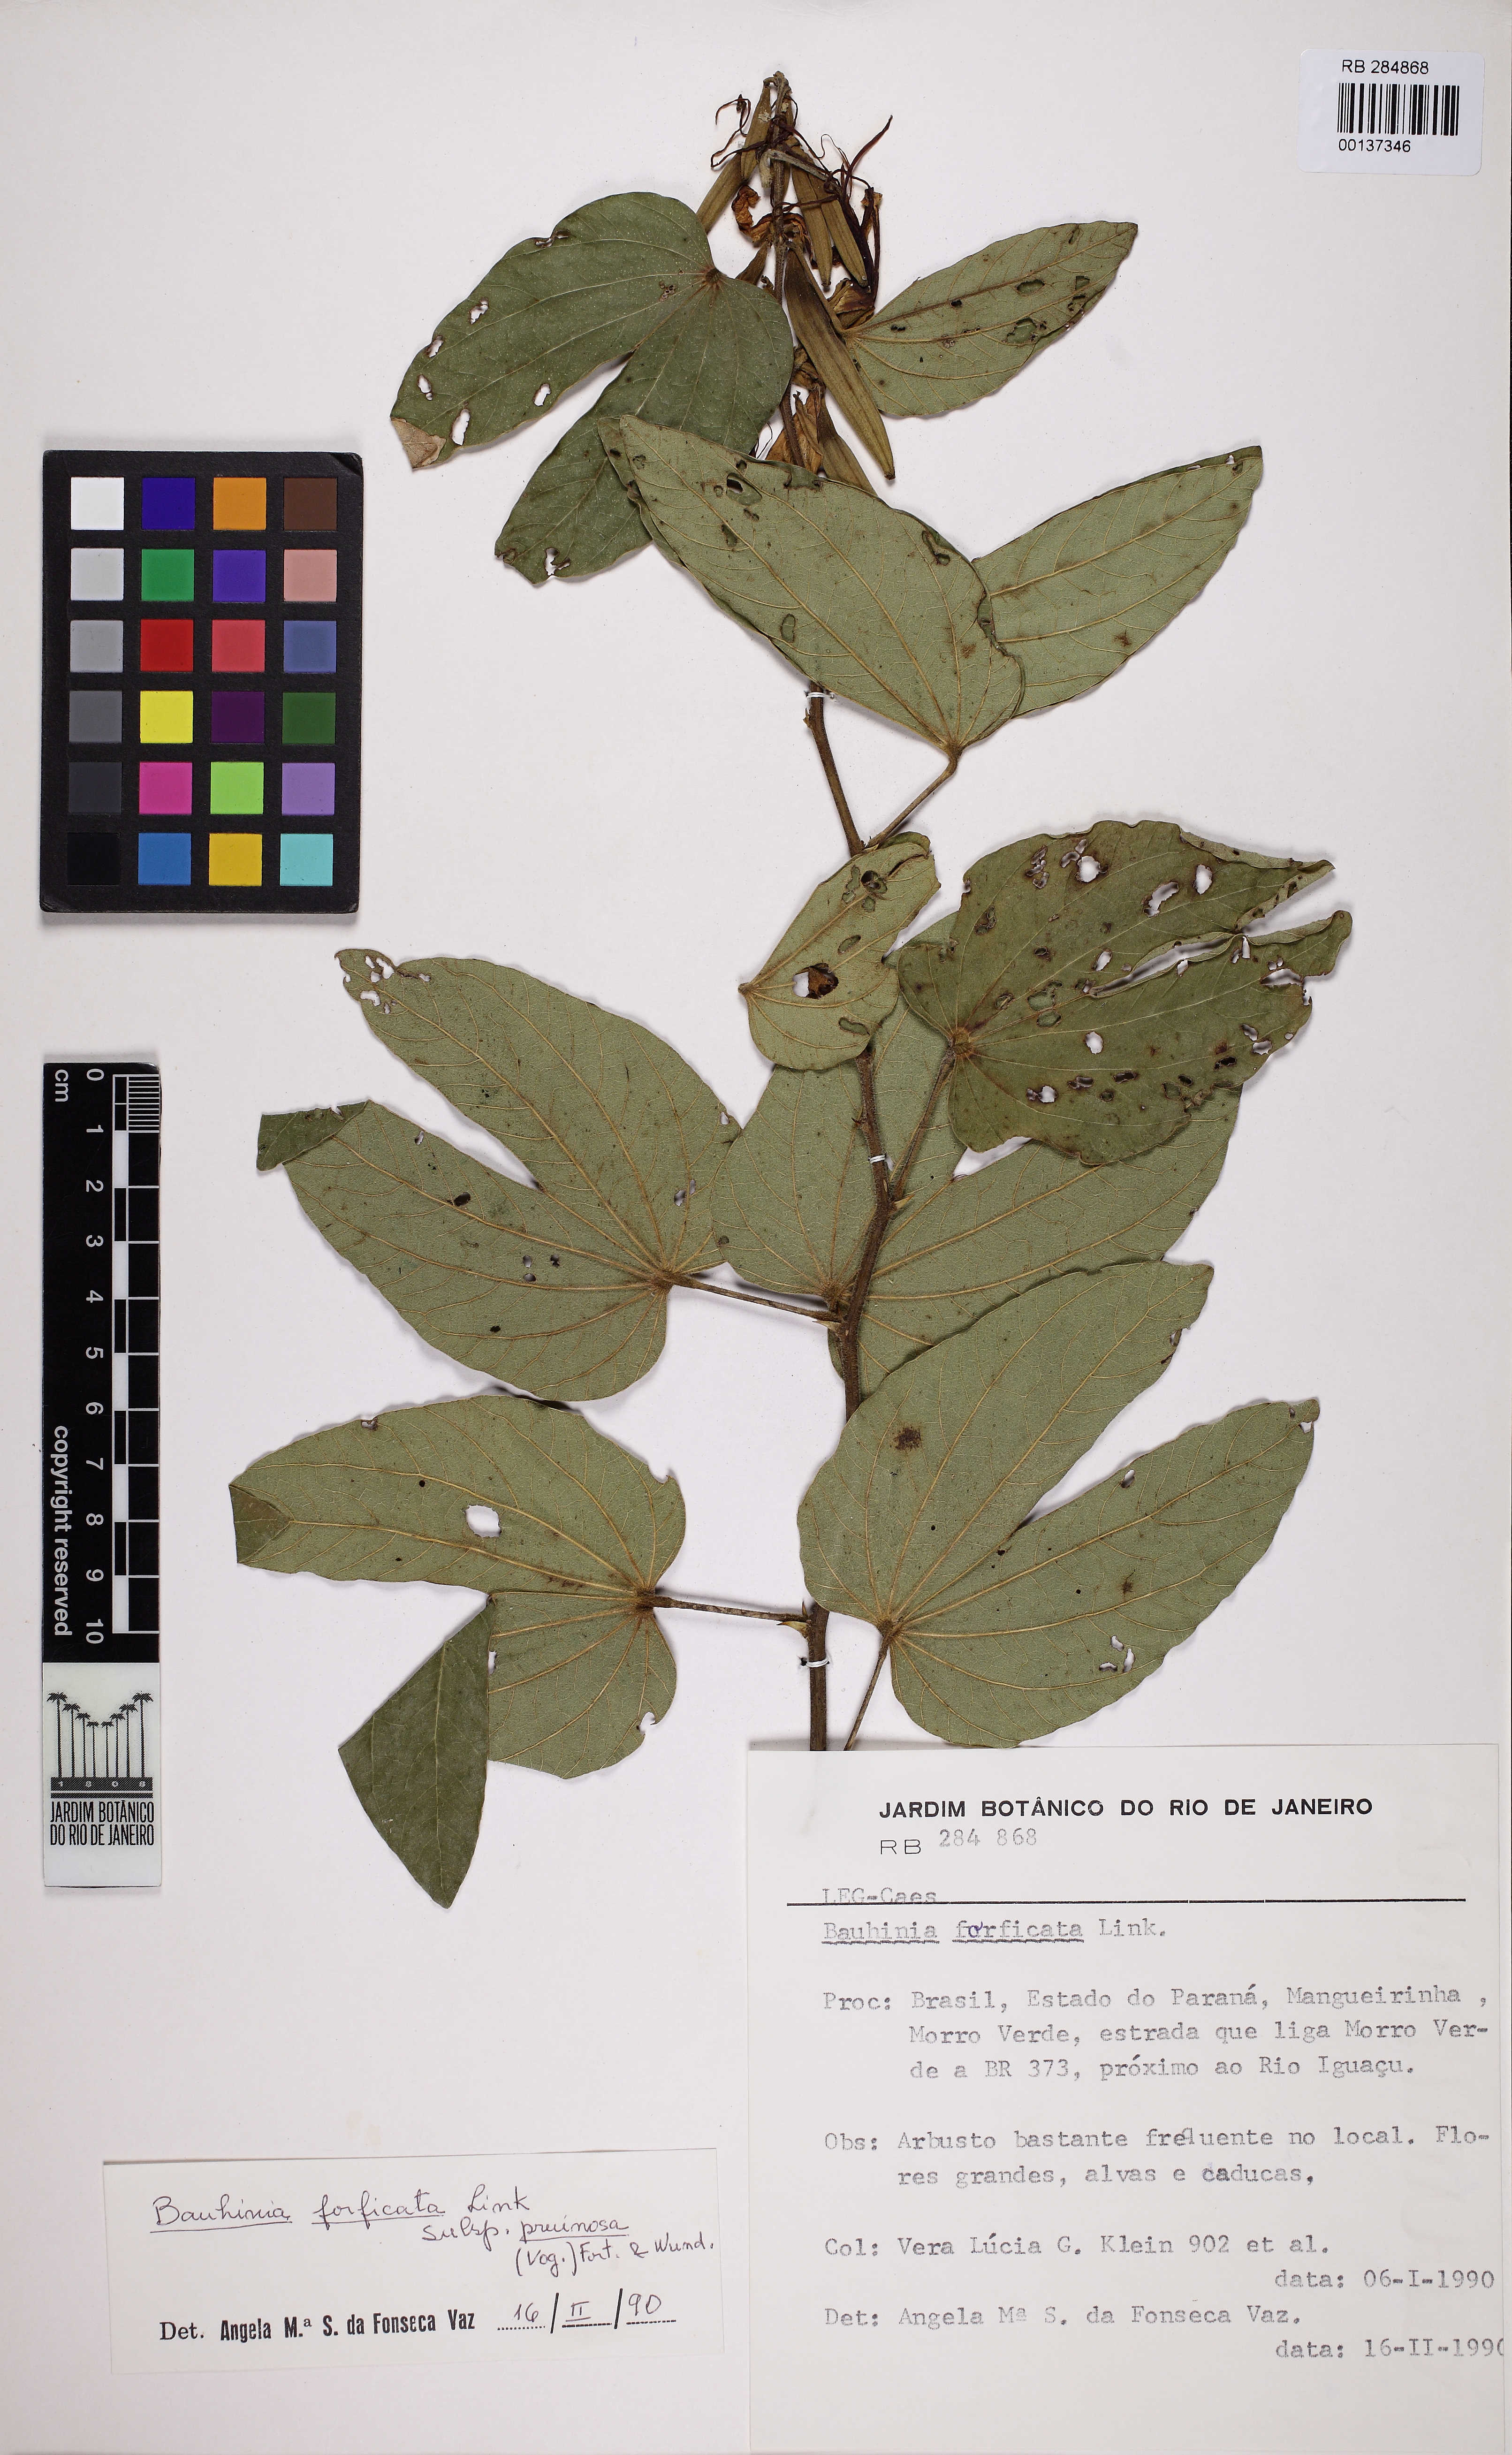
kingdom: Plantae
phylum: Tracheophyta
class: Magnoliopsida
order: Fabales
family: Fabaceae
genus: Bauhinia
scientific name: Bauhinia forficata
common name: Orchid tree
